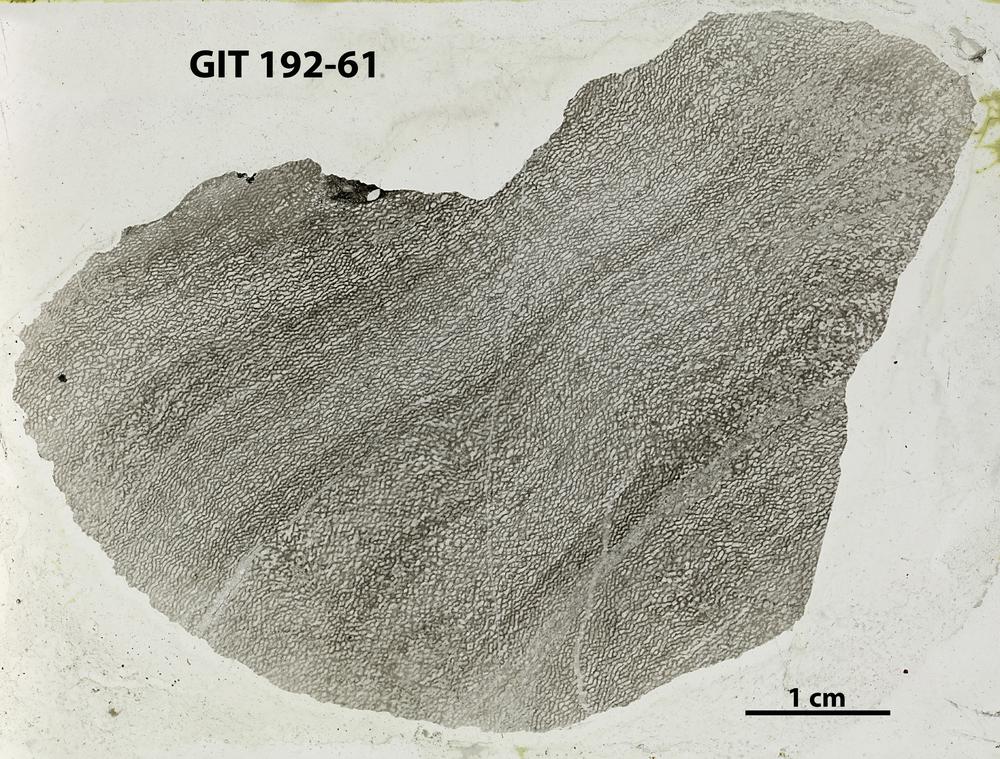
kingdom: Animalia
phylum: Porifera
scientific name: Porifera
